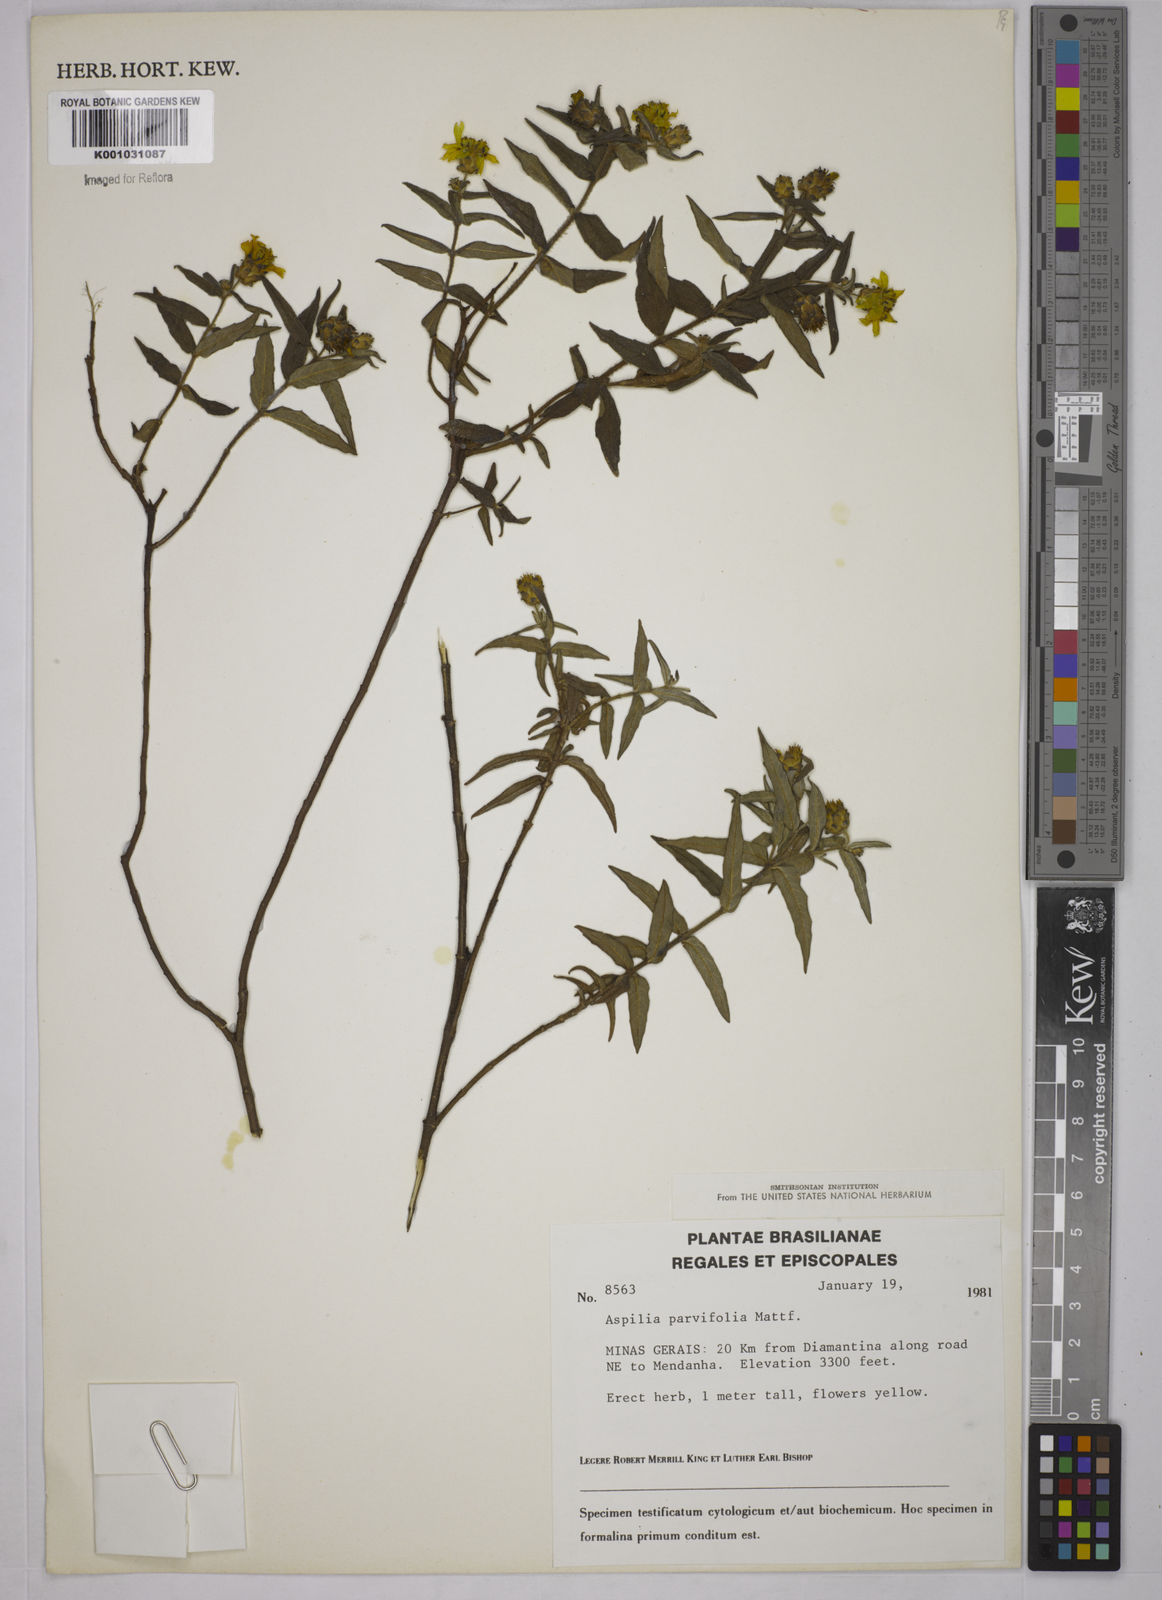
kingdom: Plantae
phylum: Tracheophyta
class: Magnoliopsida
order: Asterales
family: Asteraceae
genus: Aspilia
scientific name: Aspilia foliosa
